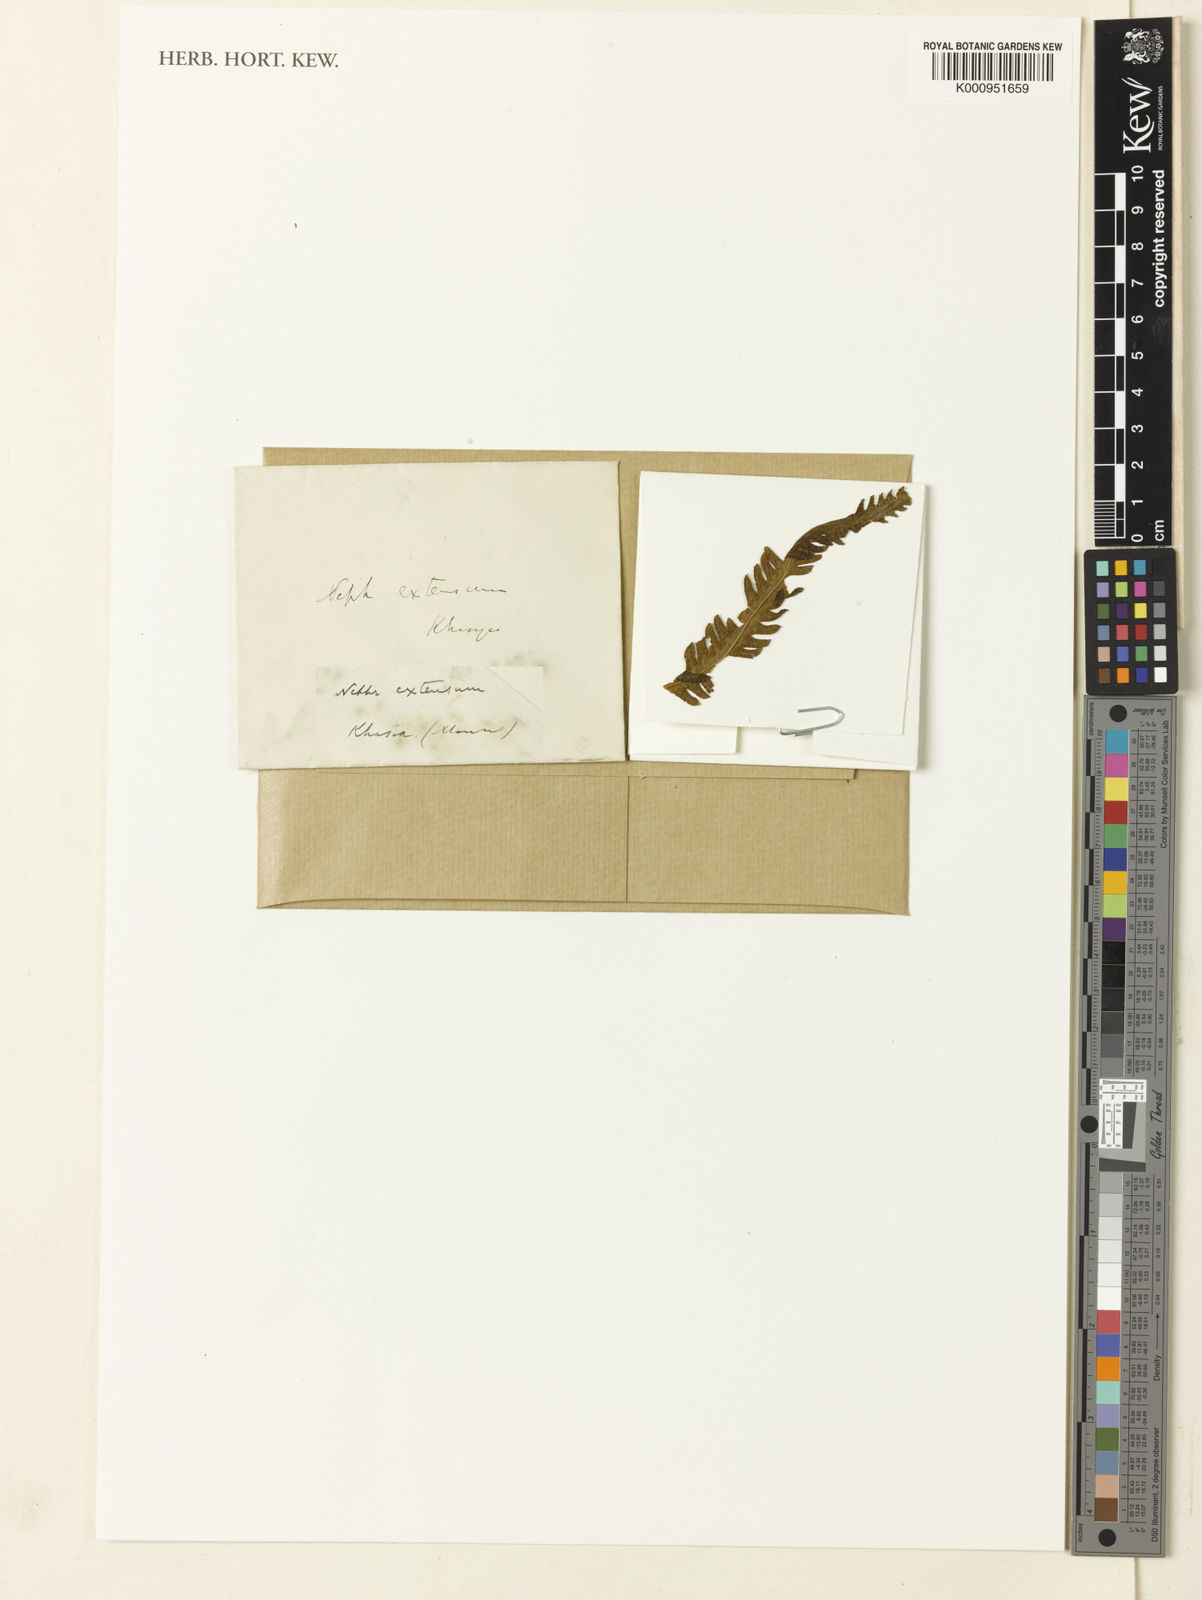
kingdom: Plantae
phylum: Tracheophyta
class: Polypodiopsida
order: Polypodiales
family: Thelypteridaceae
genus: Amblovenatum
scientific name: Amblovenatum opulentum
